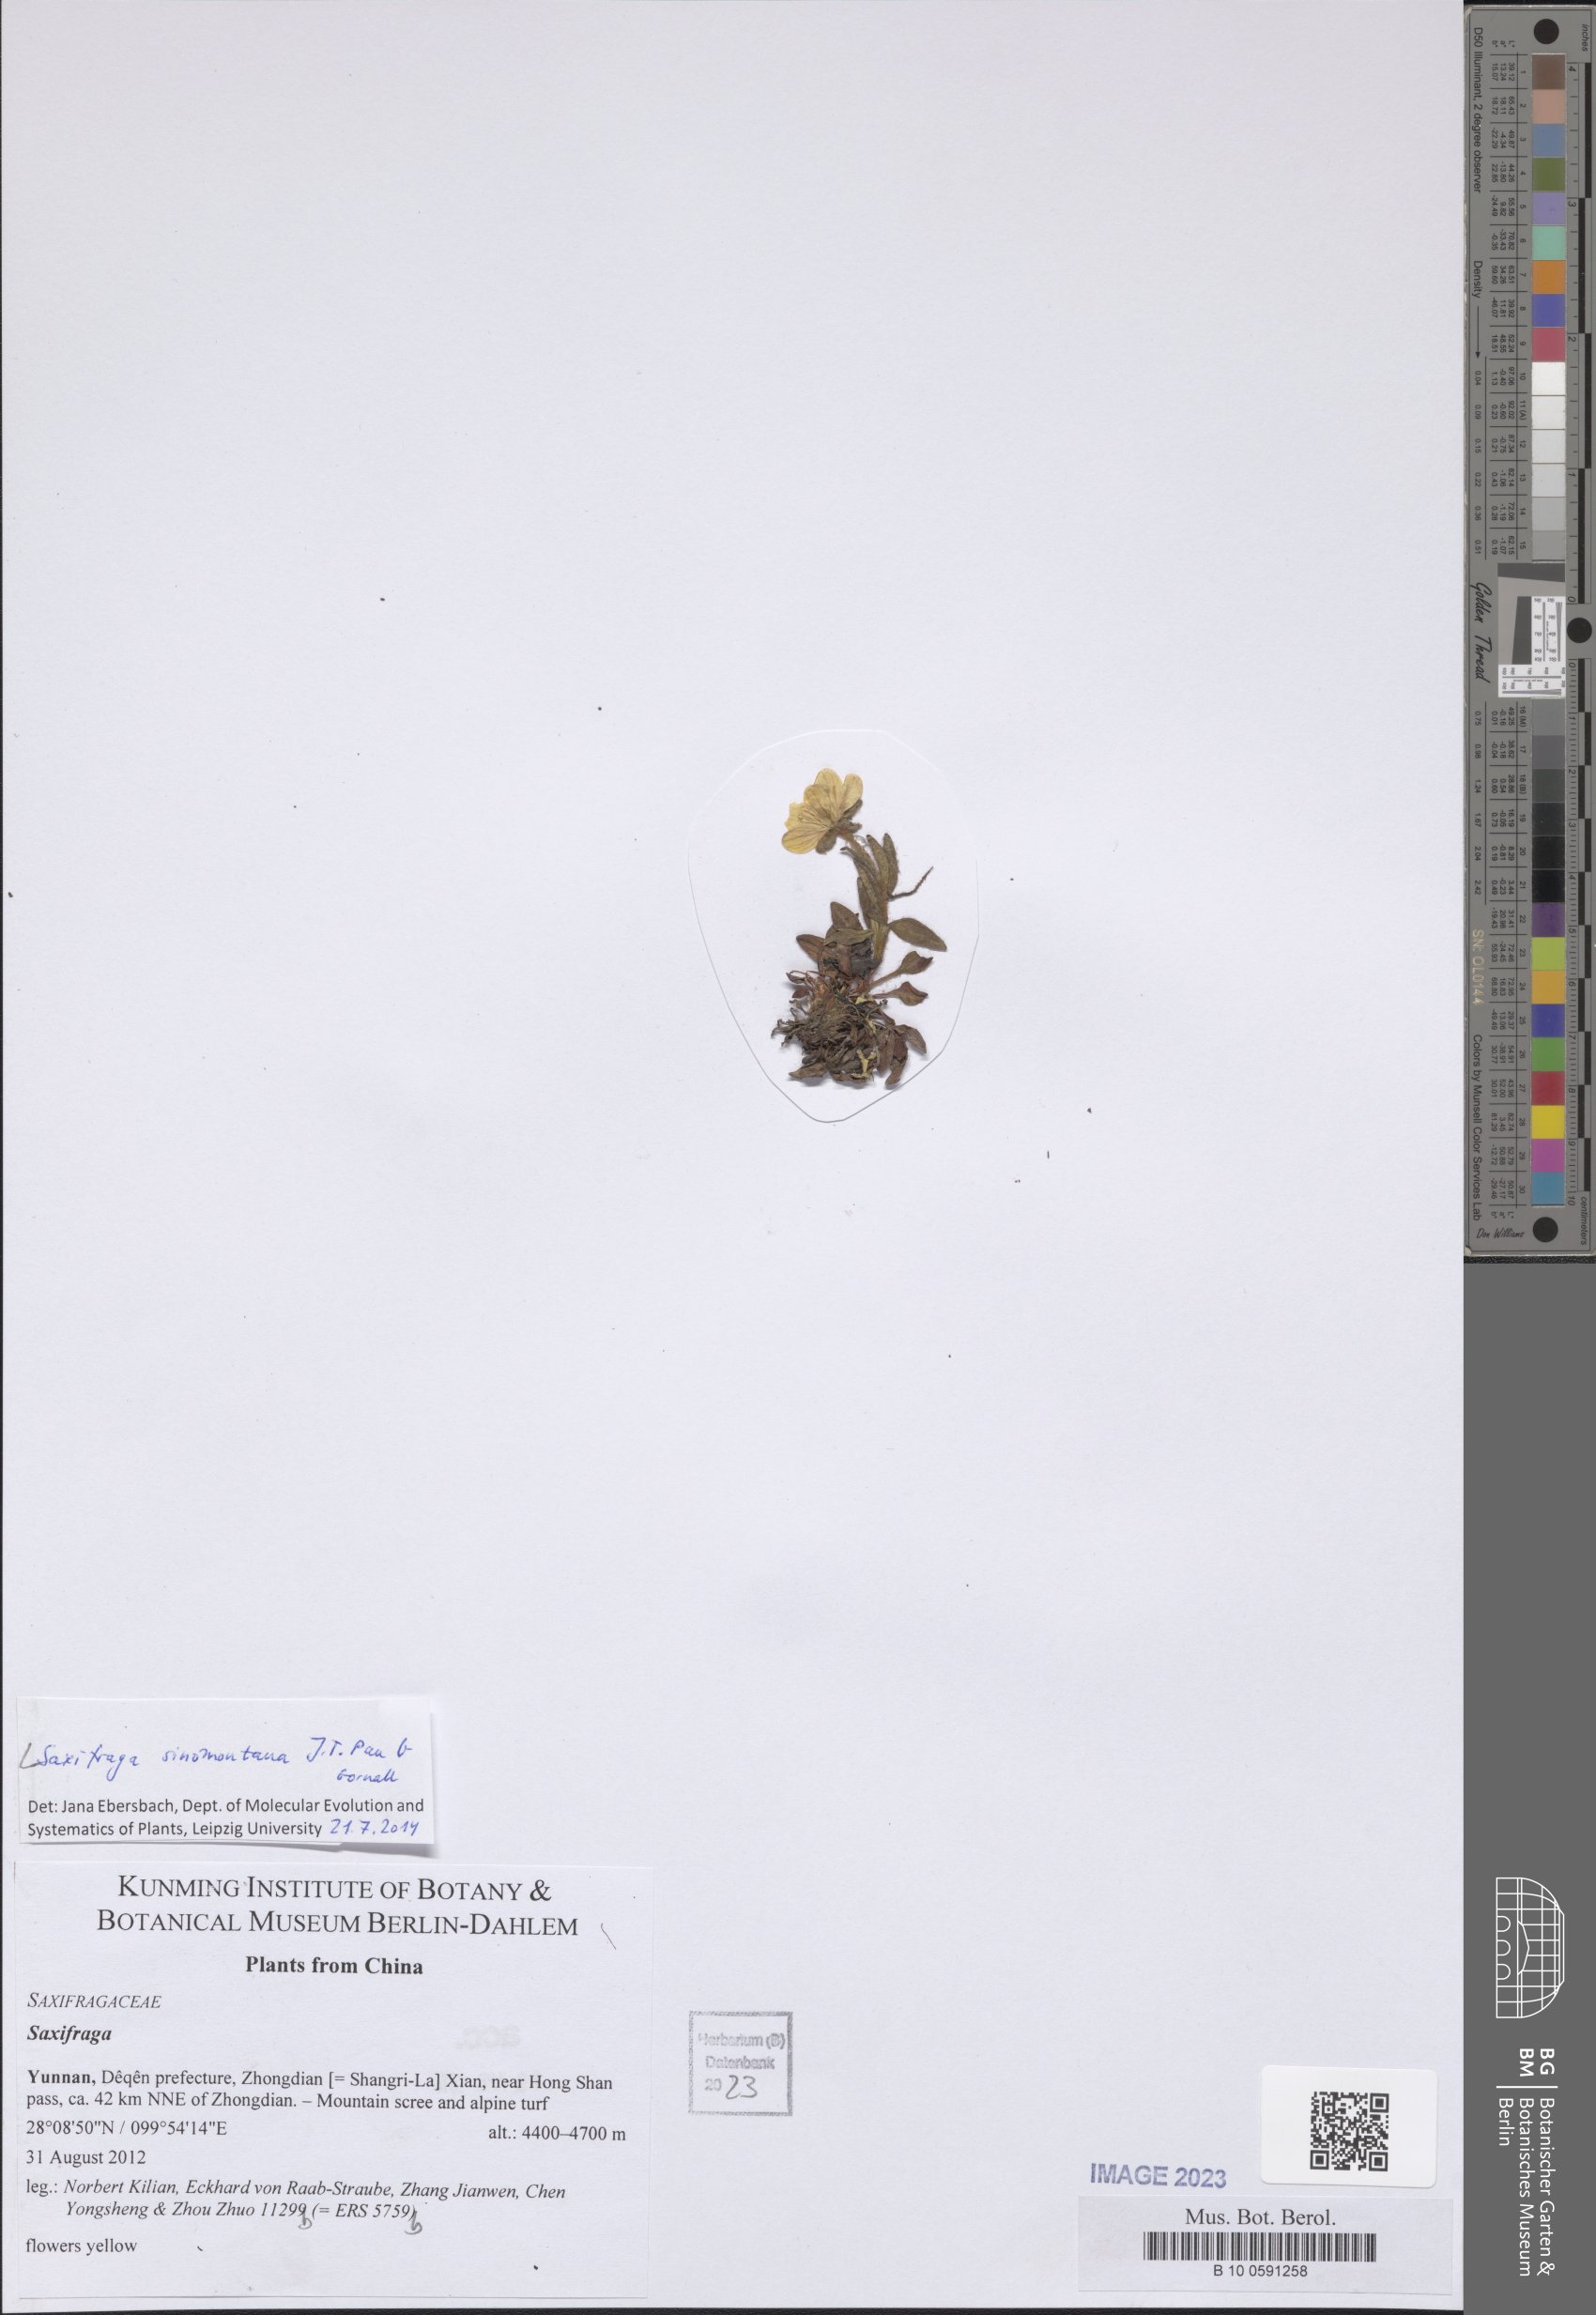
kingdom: Plantae
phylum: Tracheophyta
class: Magnoliopsida
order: Saxifragales
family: Saxifragaceae
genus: Saxifraga
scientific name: Saxifraga sinomontana
